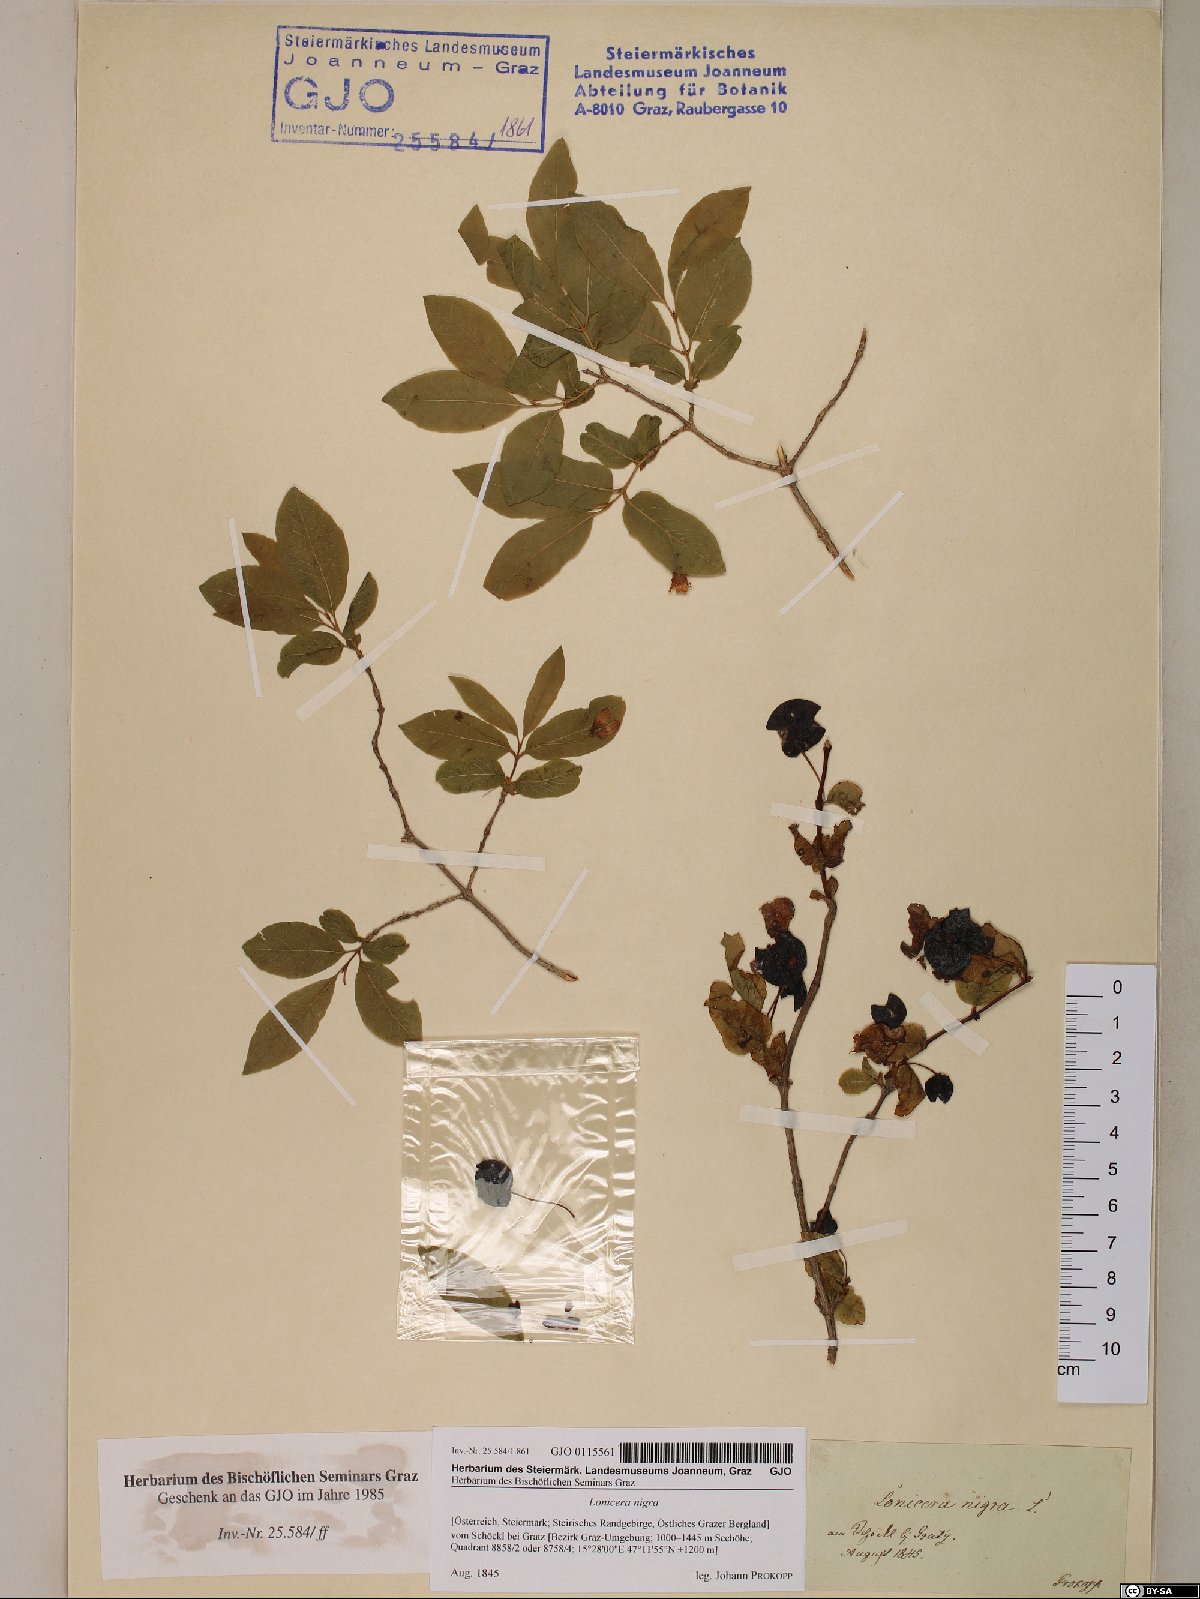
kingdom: Plantae
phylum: Tracheophyta
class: Magnoliopsida
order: Dipsacales
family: Caprifoliaceae
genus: Lonicera
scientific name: Lonicera nigra
